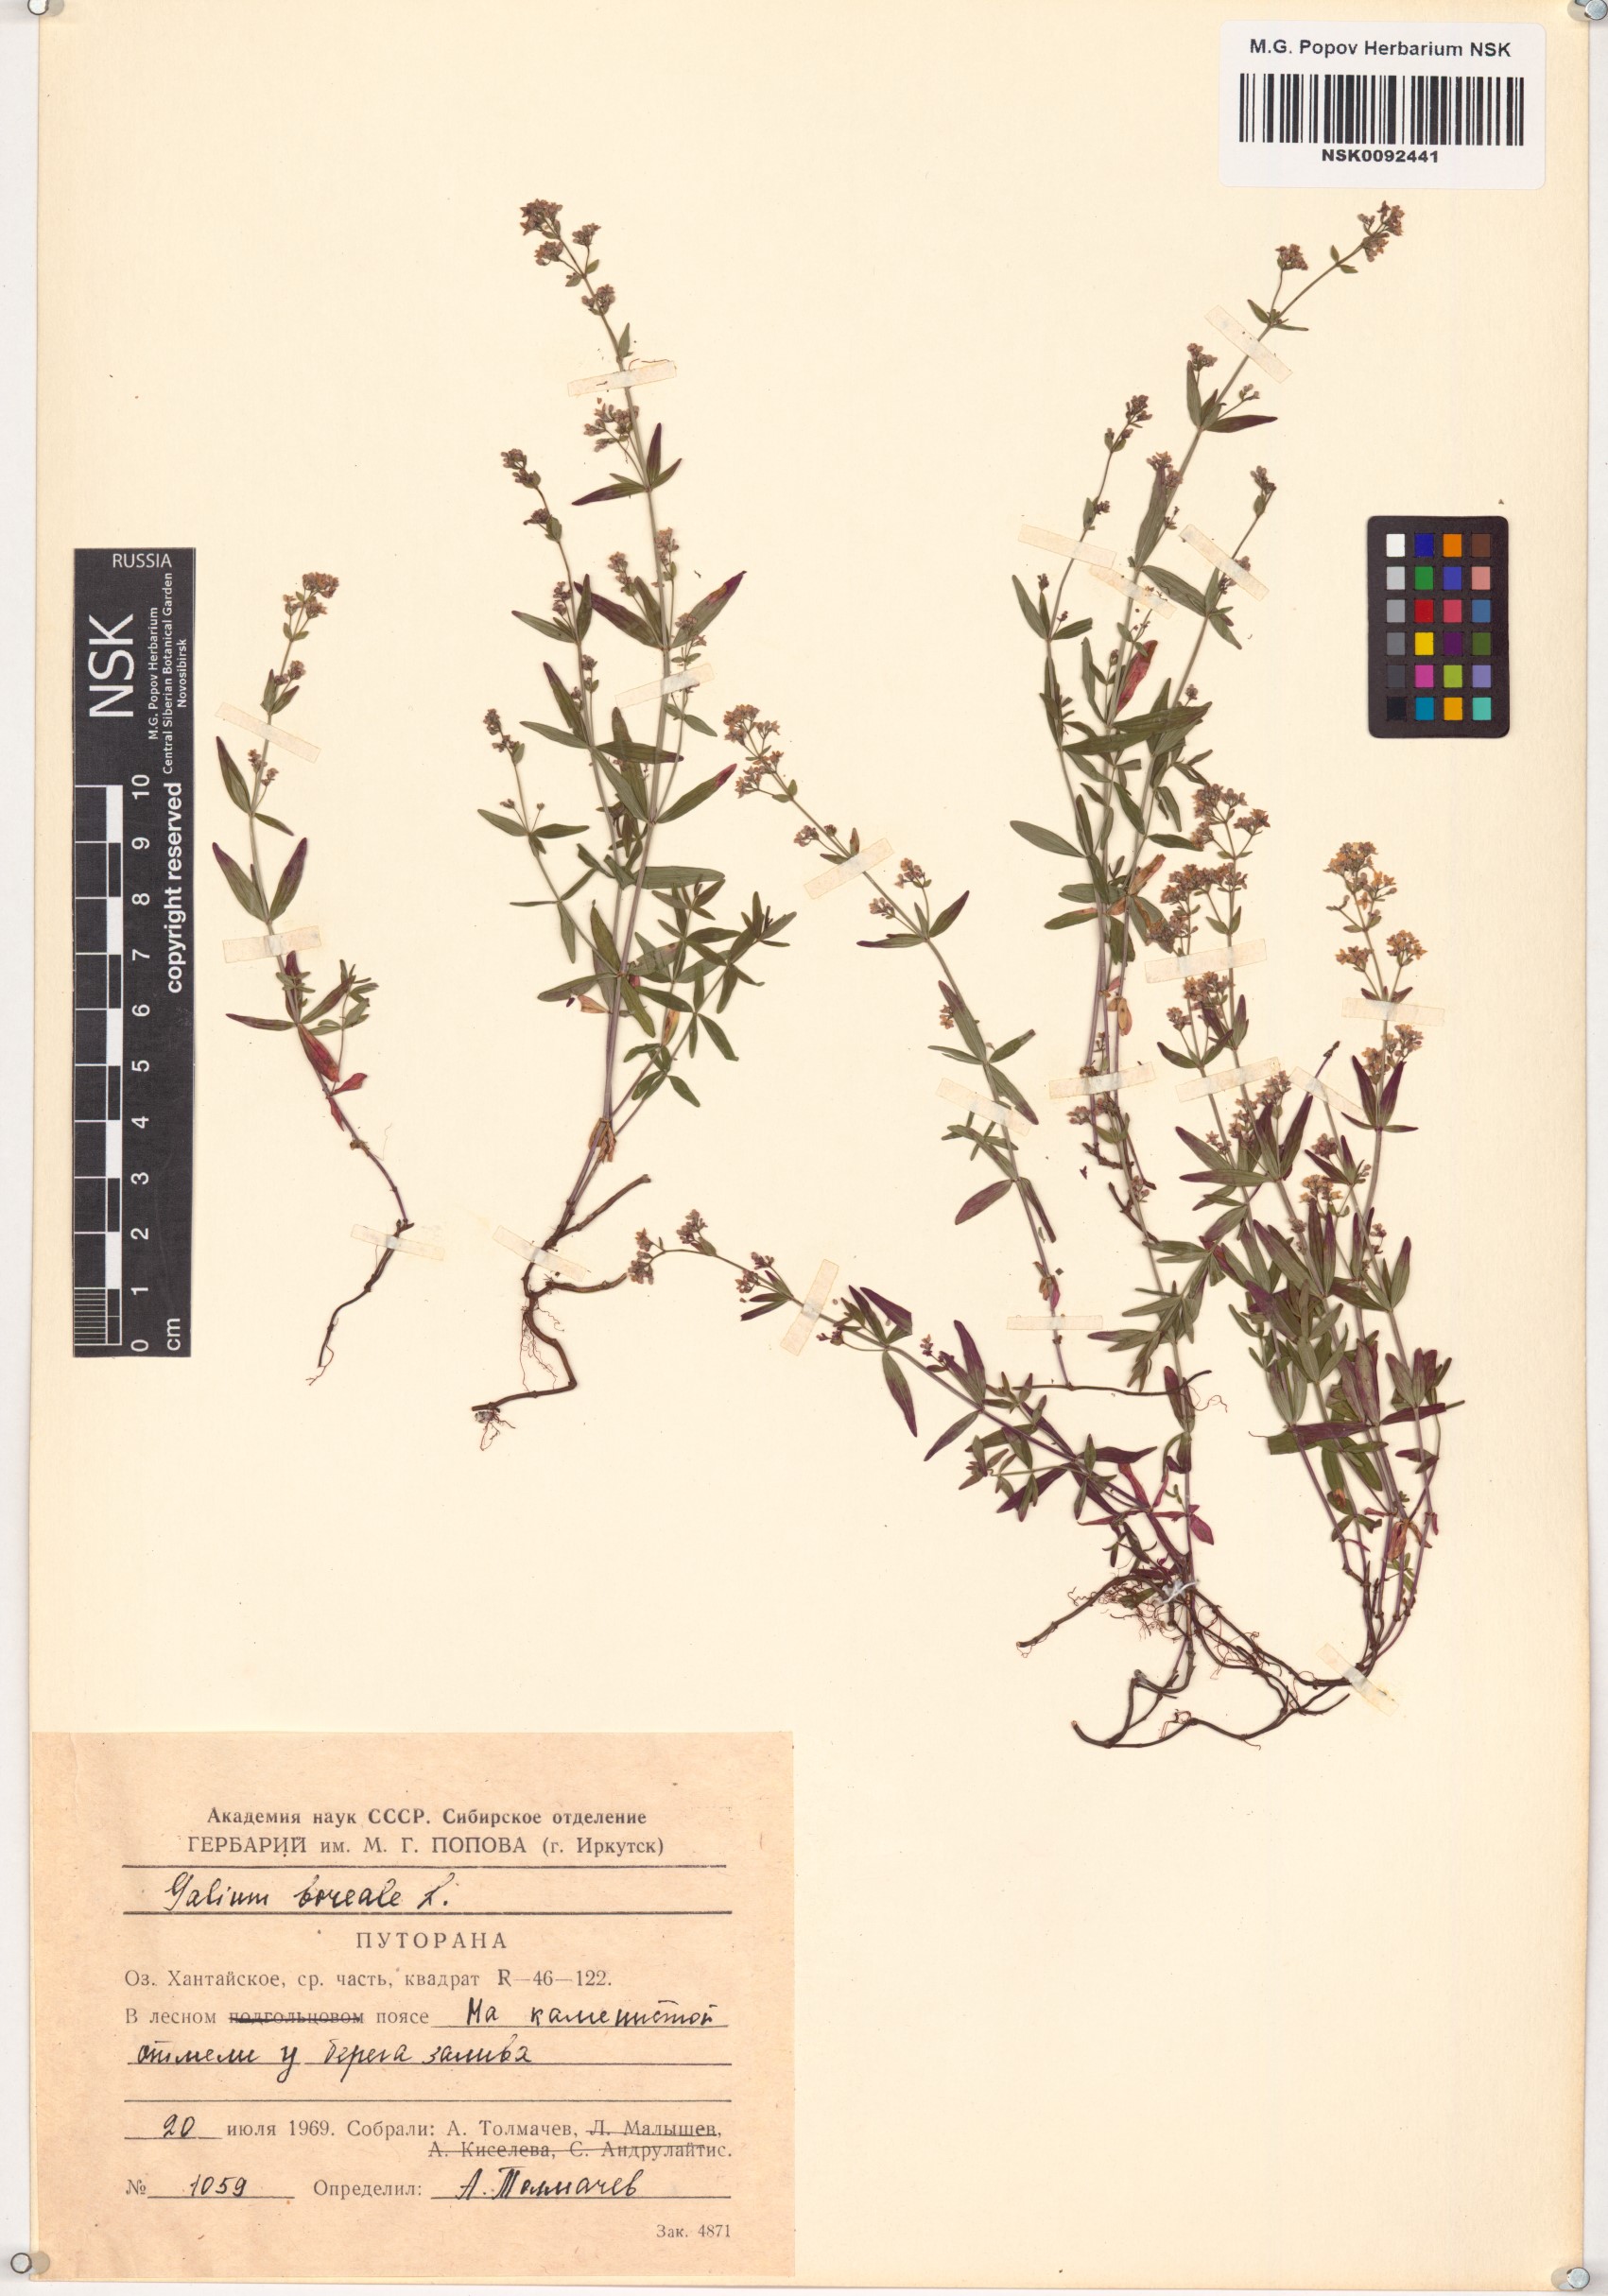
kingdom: Plantae
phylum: Tracheophyta
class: Magnoliopsida
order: Gentianales
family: Rubiaceae
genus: Galium
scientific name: Galium boreale
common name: Northern bedstraw
